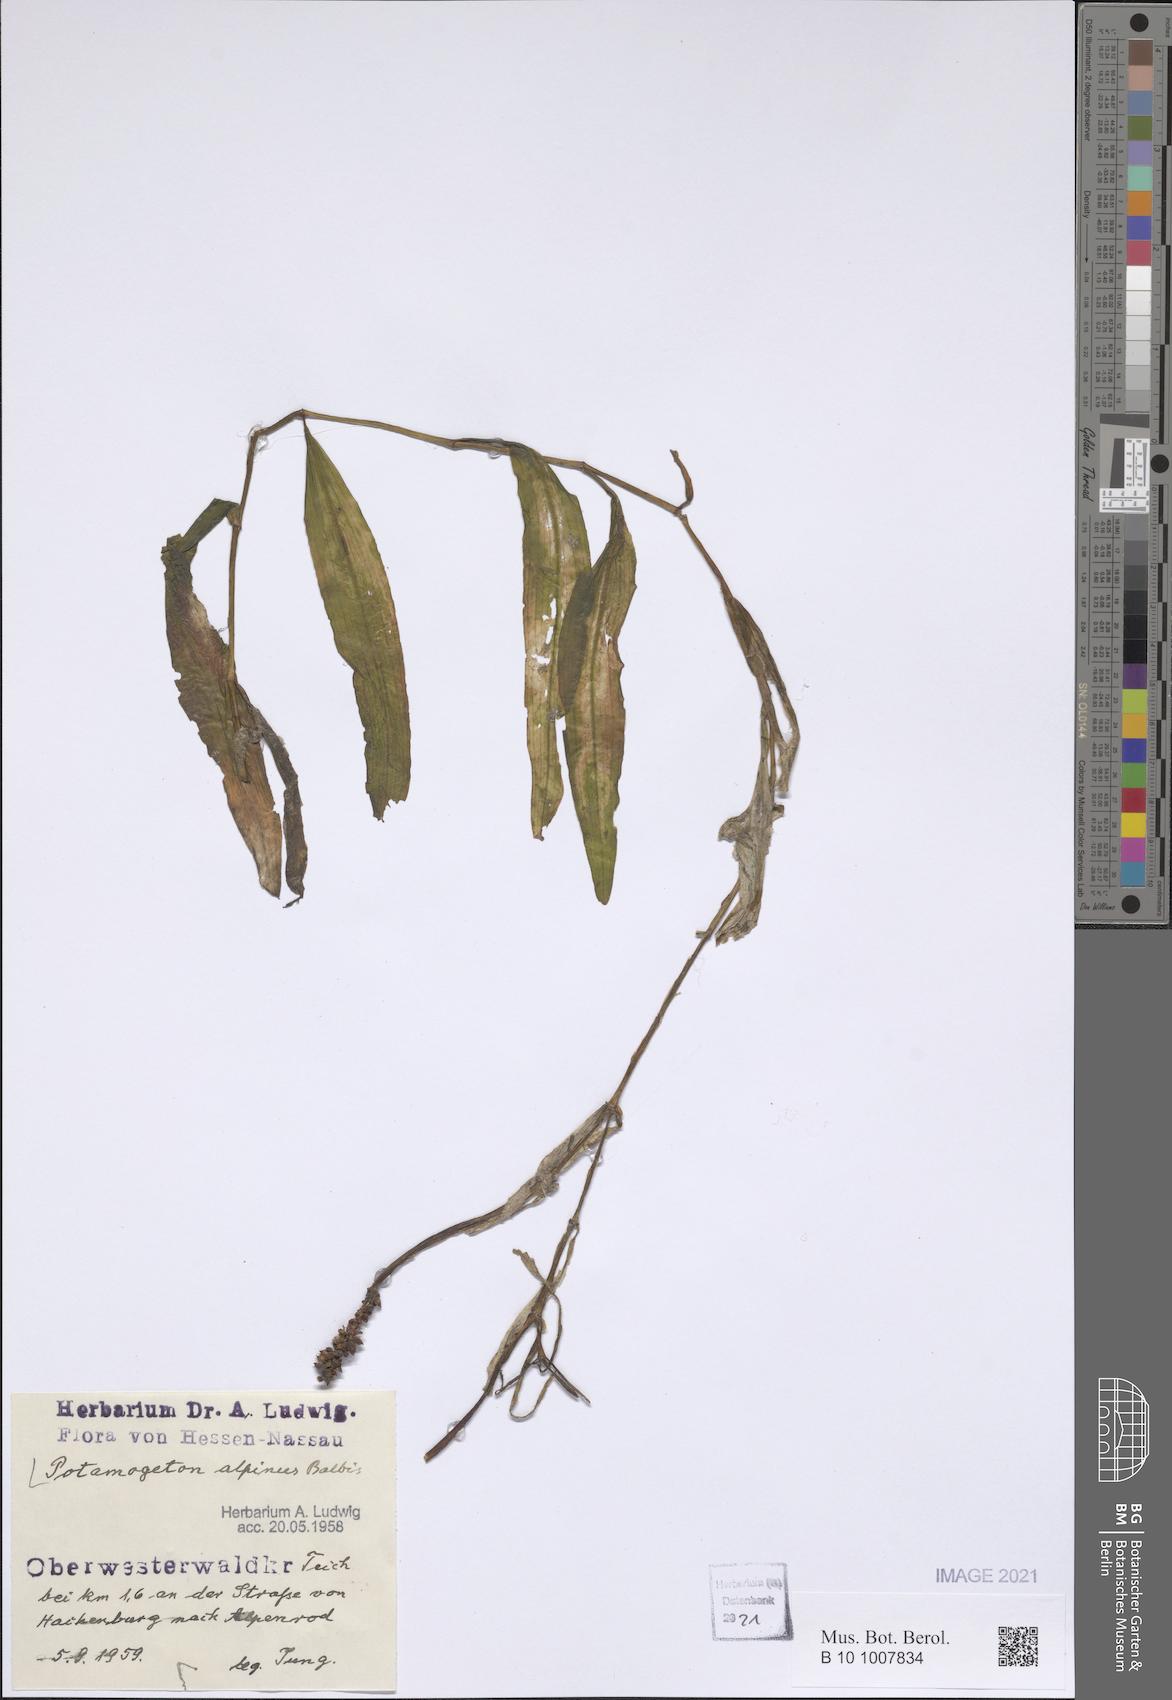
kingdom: Plantae
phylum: Tracheophyta
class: Liliopsida
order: Alismatales
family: Potamogetonaceae
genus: Potamogeton
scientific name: Potamogeton alpinus
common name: Red pondweed
